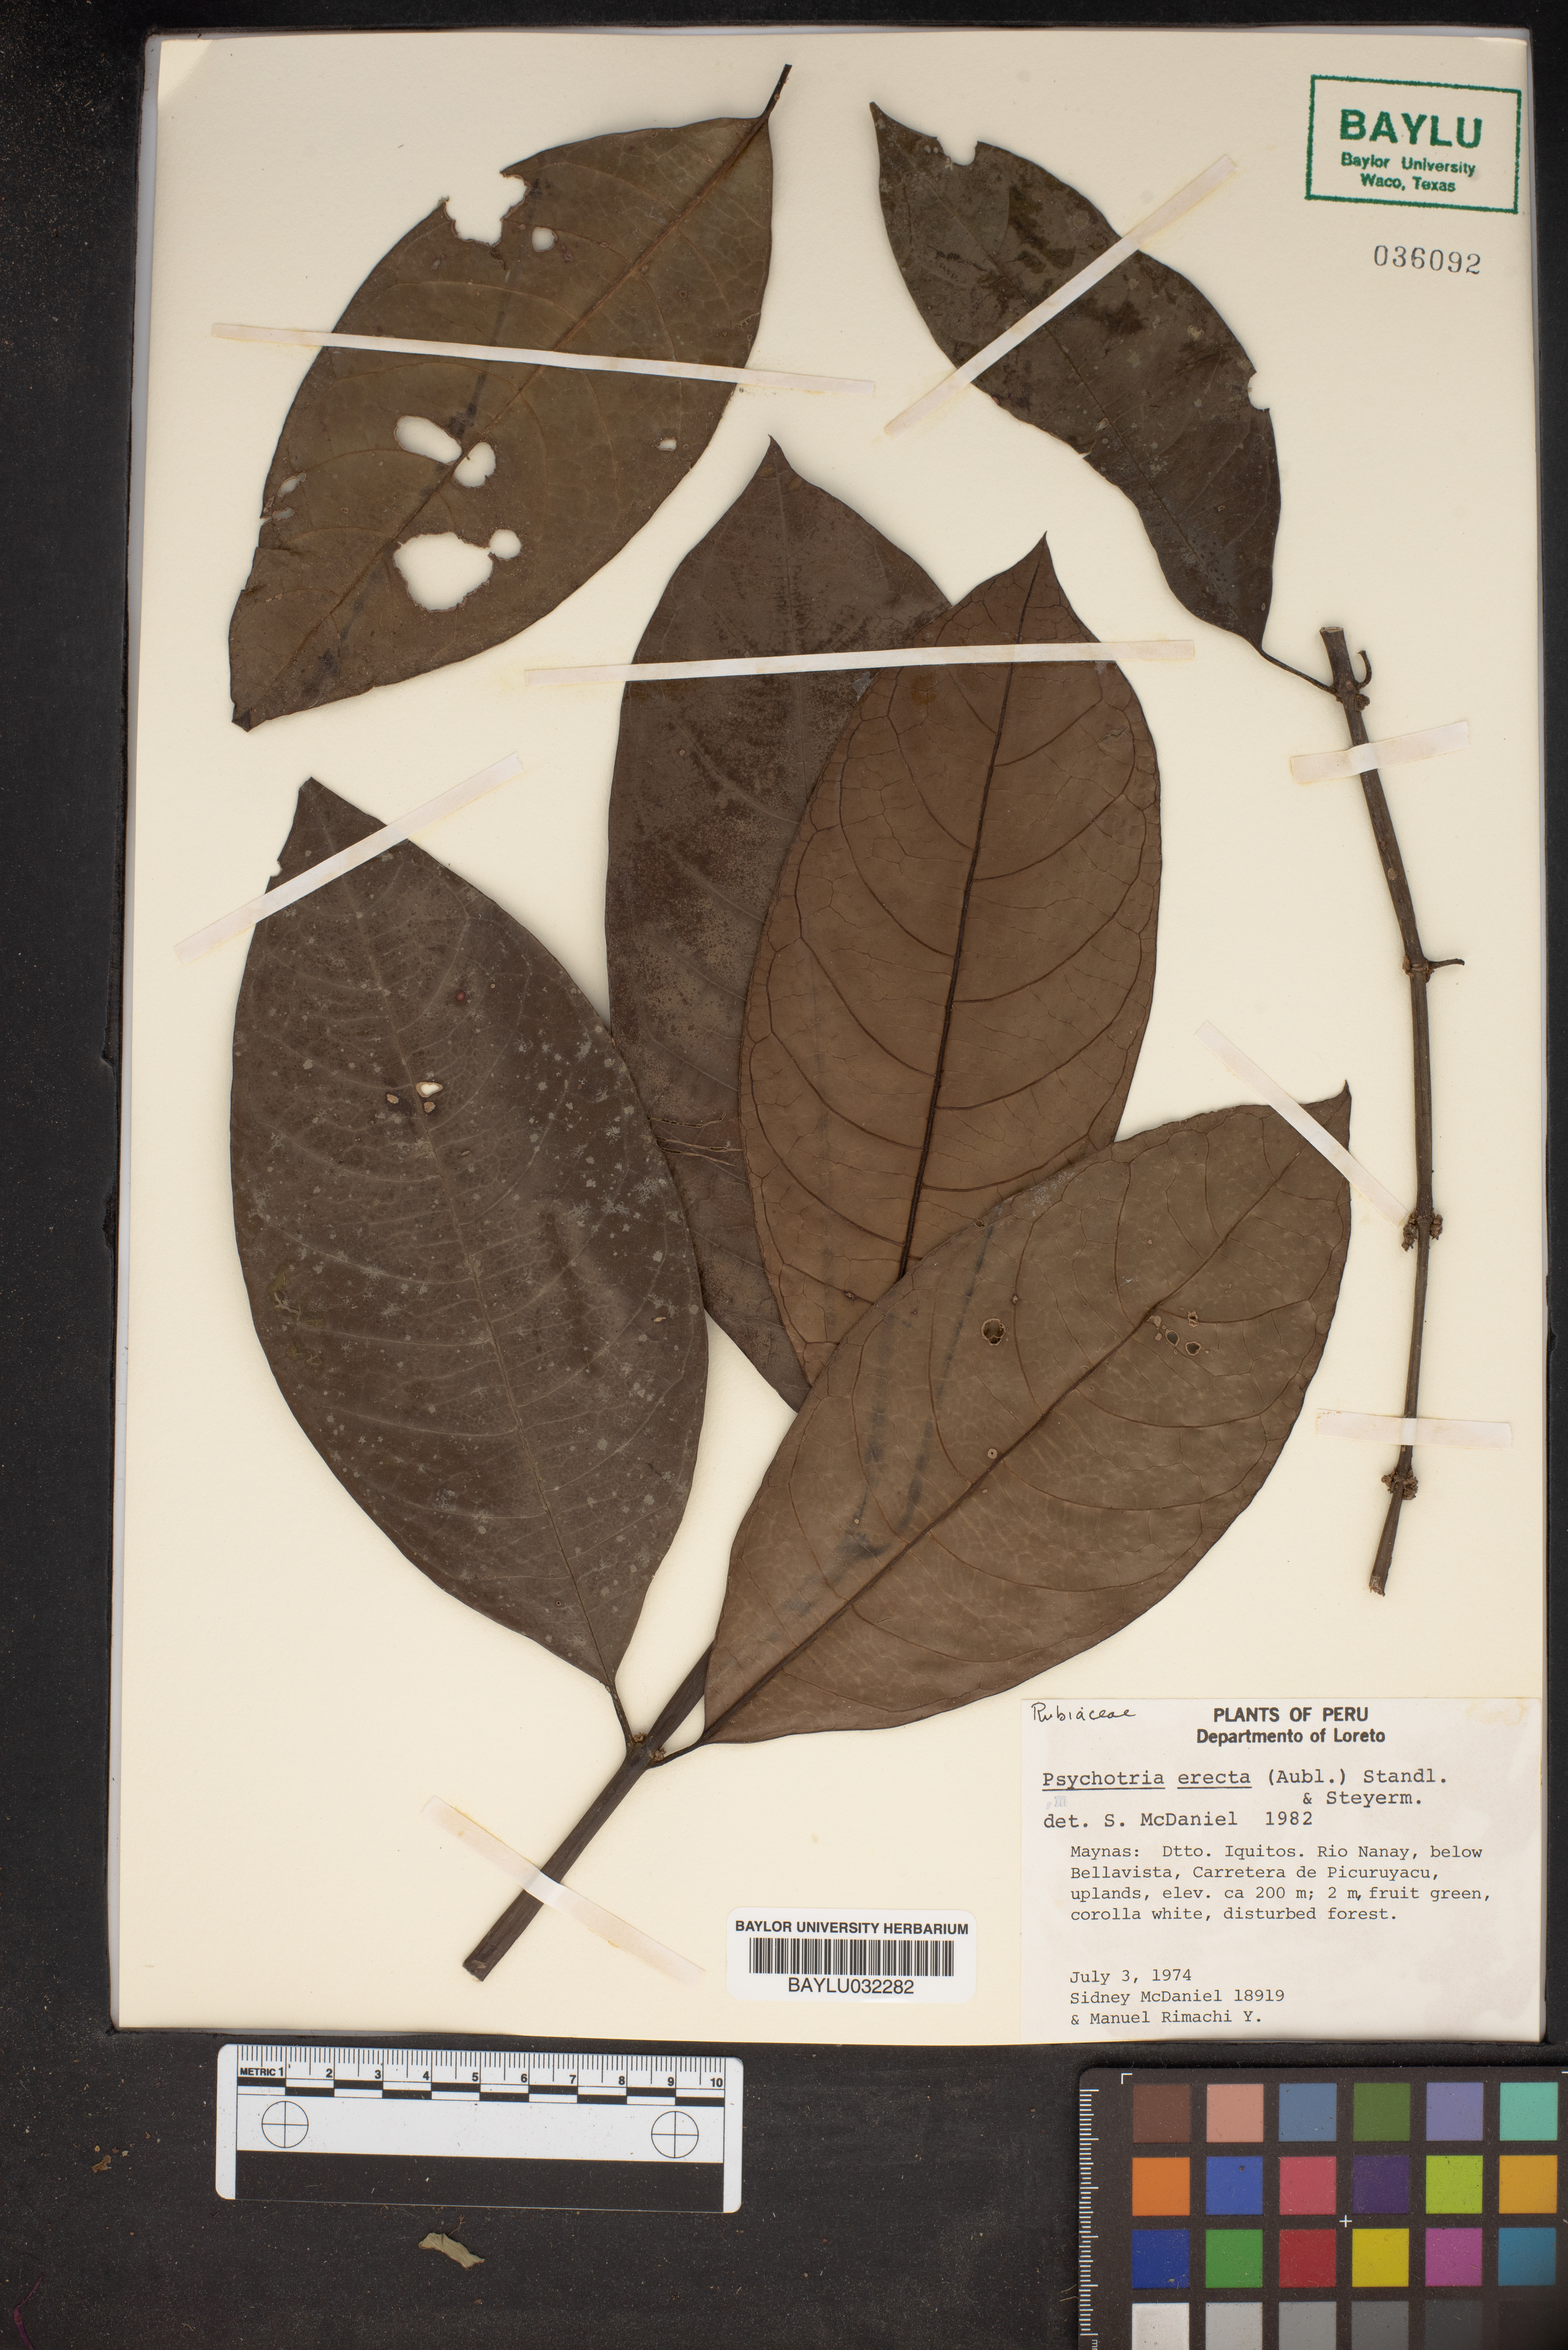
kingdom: Plantae
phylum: Tracheophyta
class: Magnoliopsida
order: Gentianales
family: Rubiaceae
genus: Ronabea
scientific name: Ronabea latifolia
